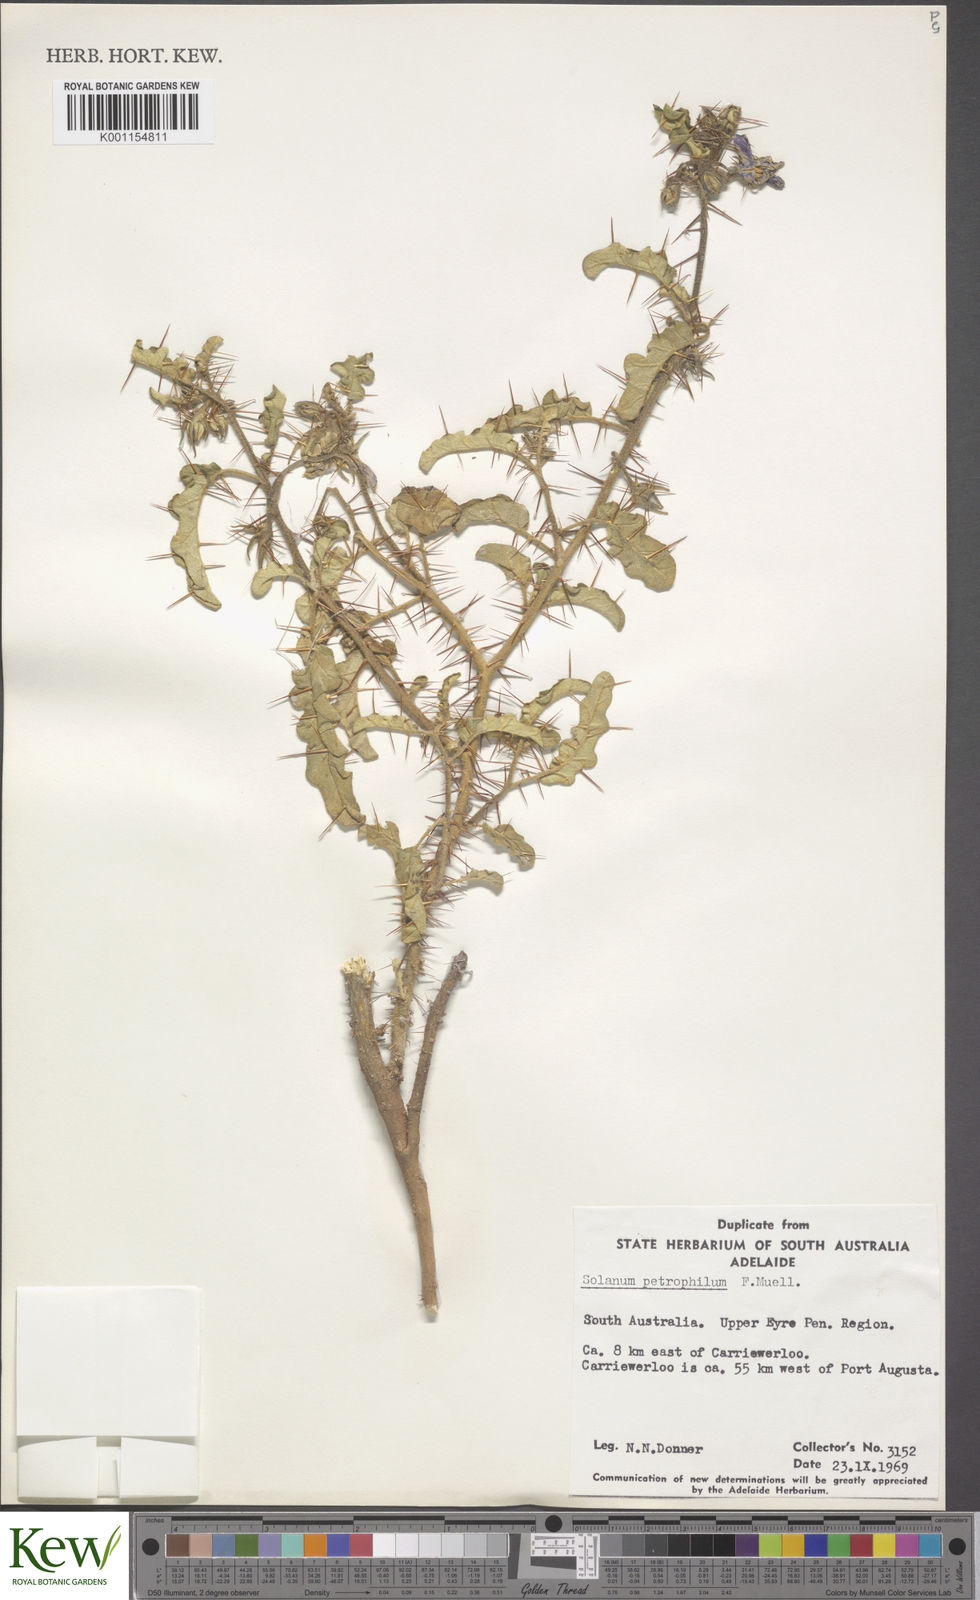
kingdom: Plantae
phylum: Tracheophyta
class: Magnoliopsida
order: Solanales
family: Solanaceae
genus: Solanum
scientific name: Solanum petrophilum
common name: Rock nightshade
